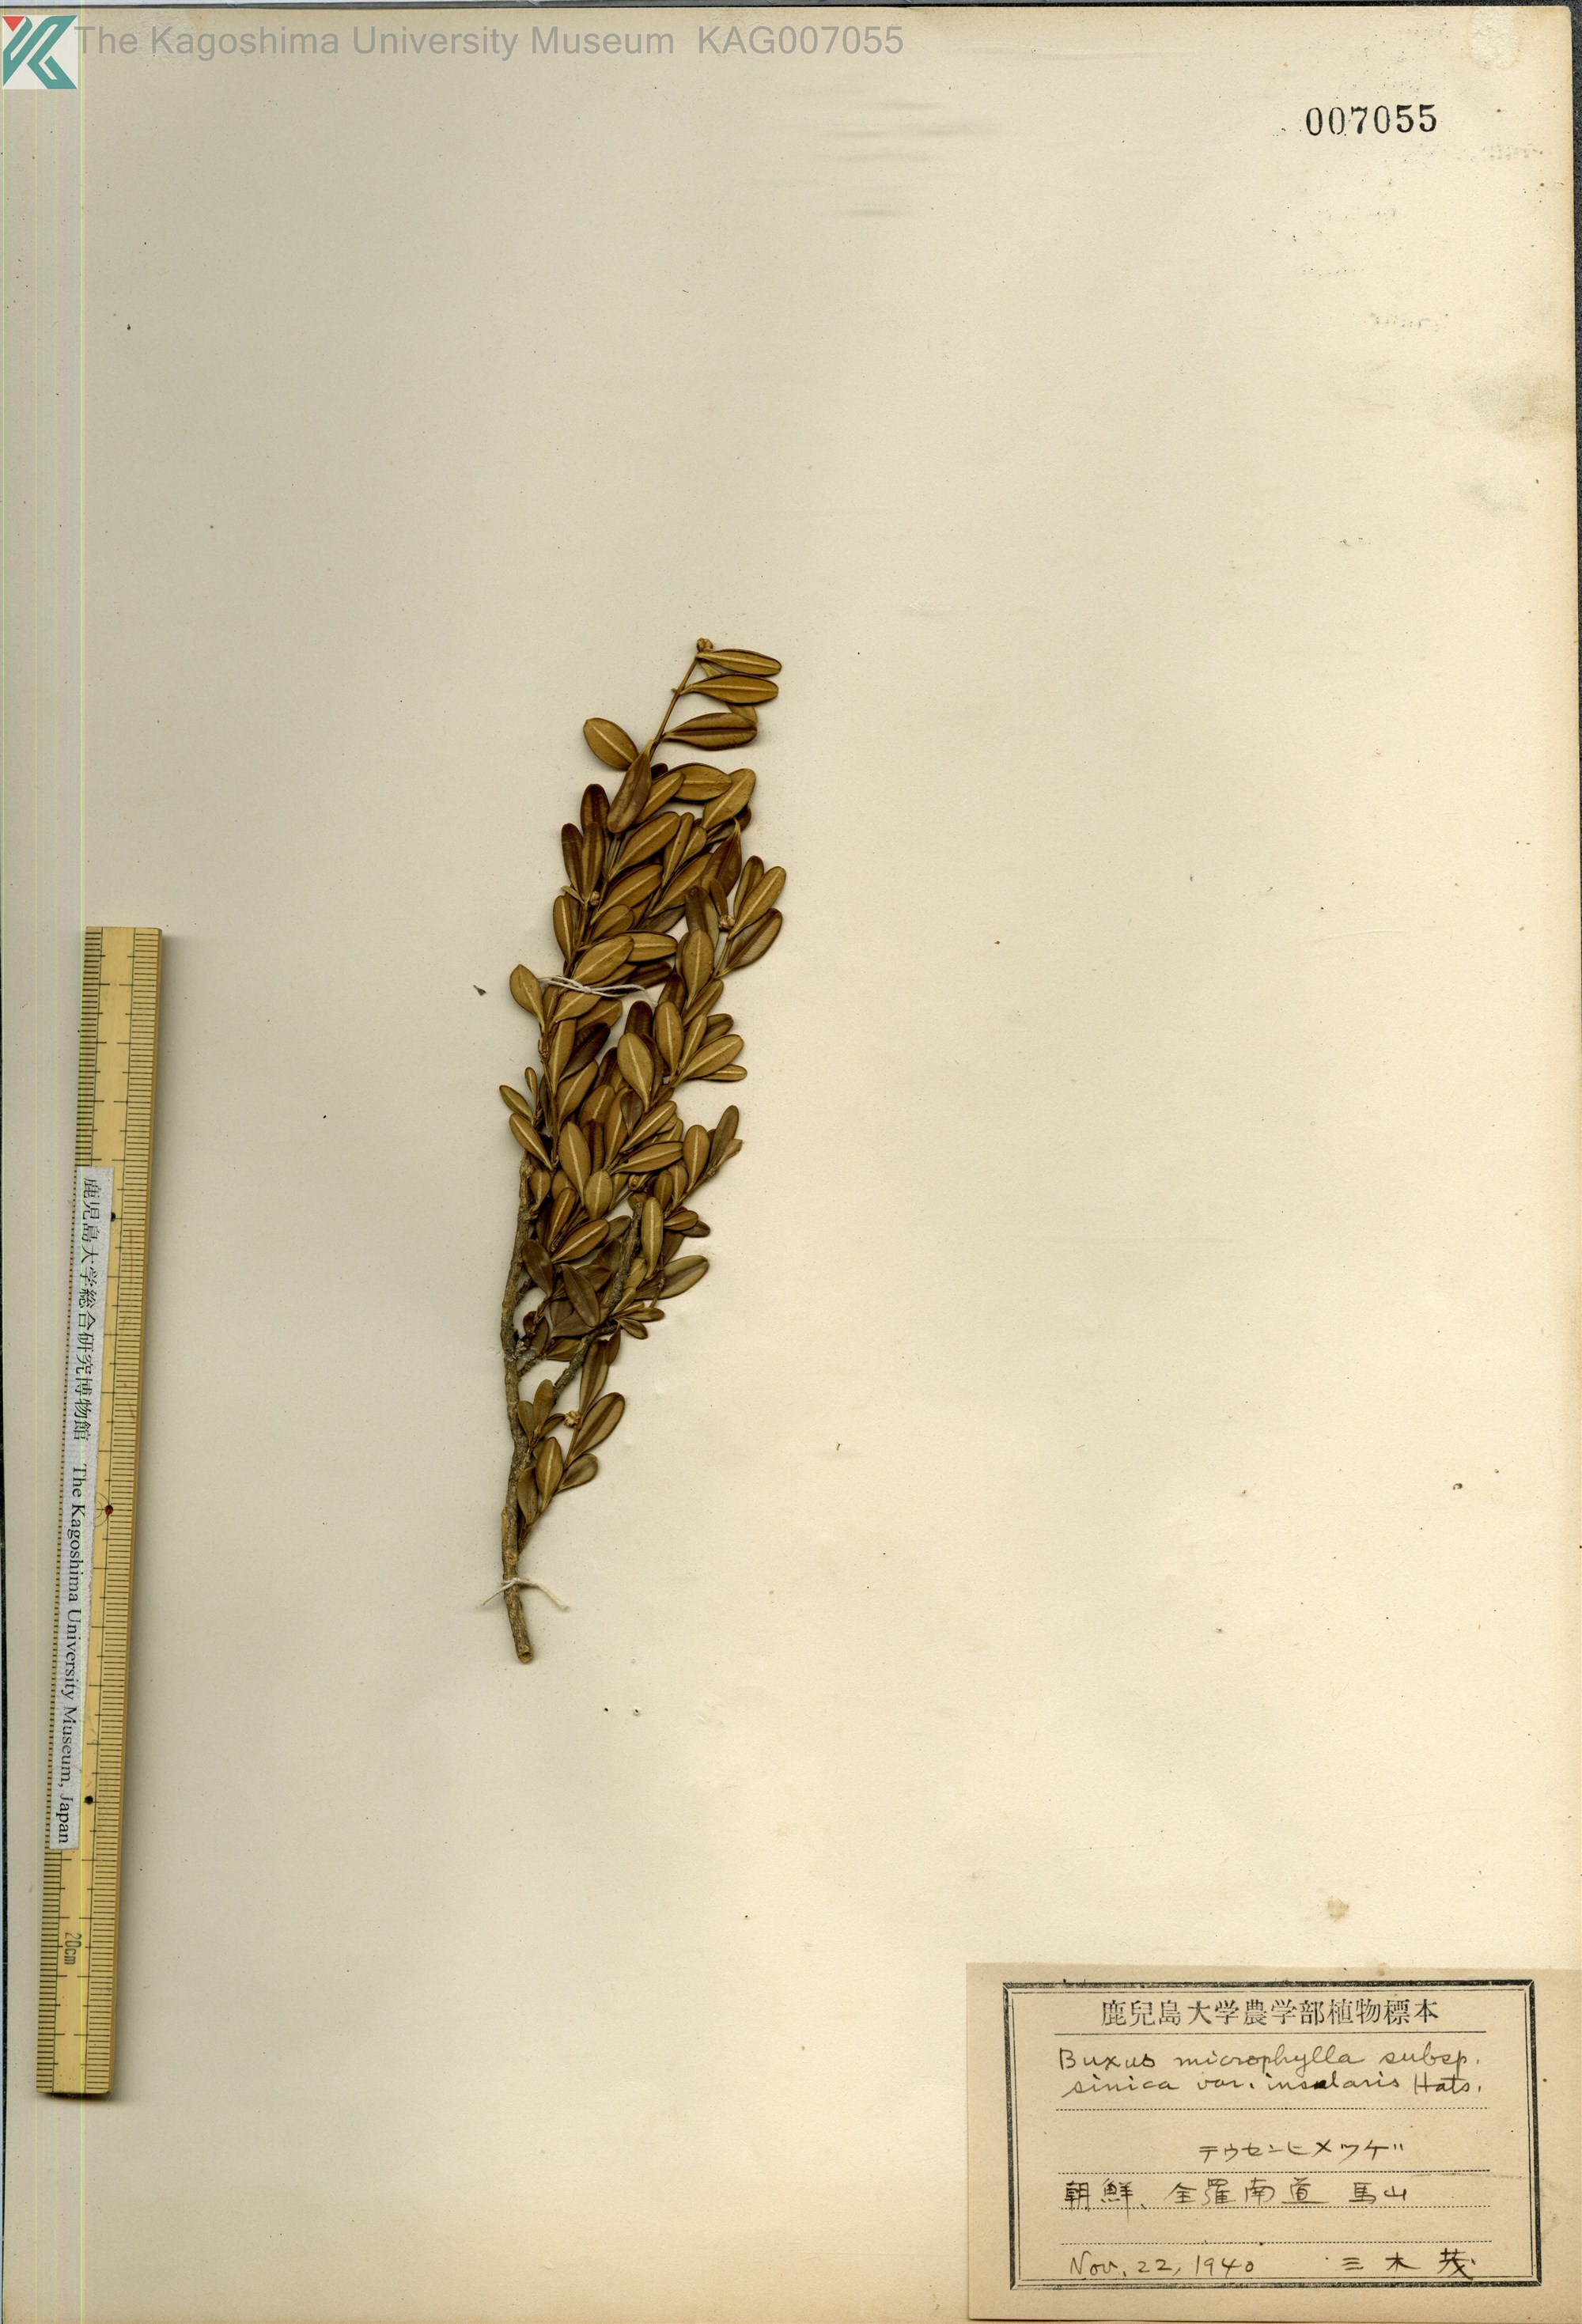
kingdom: Plantae
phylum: Tracheophyta
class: Magnoliopsida
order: Buxales
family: Buxaceae
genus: Buxus
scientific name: Buxus sinica
